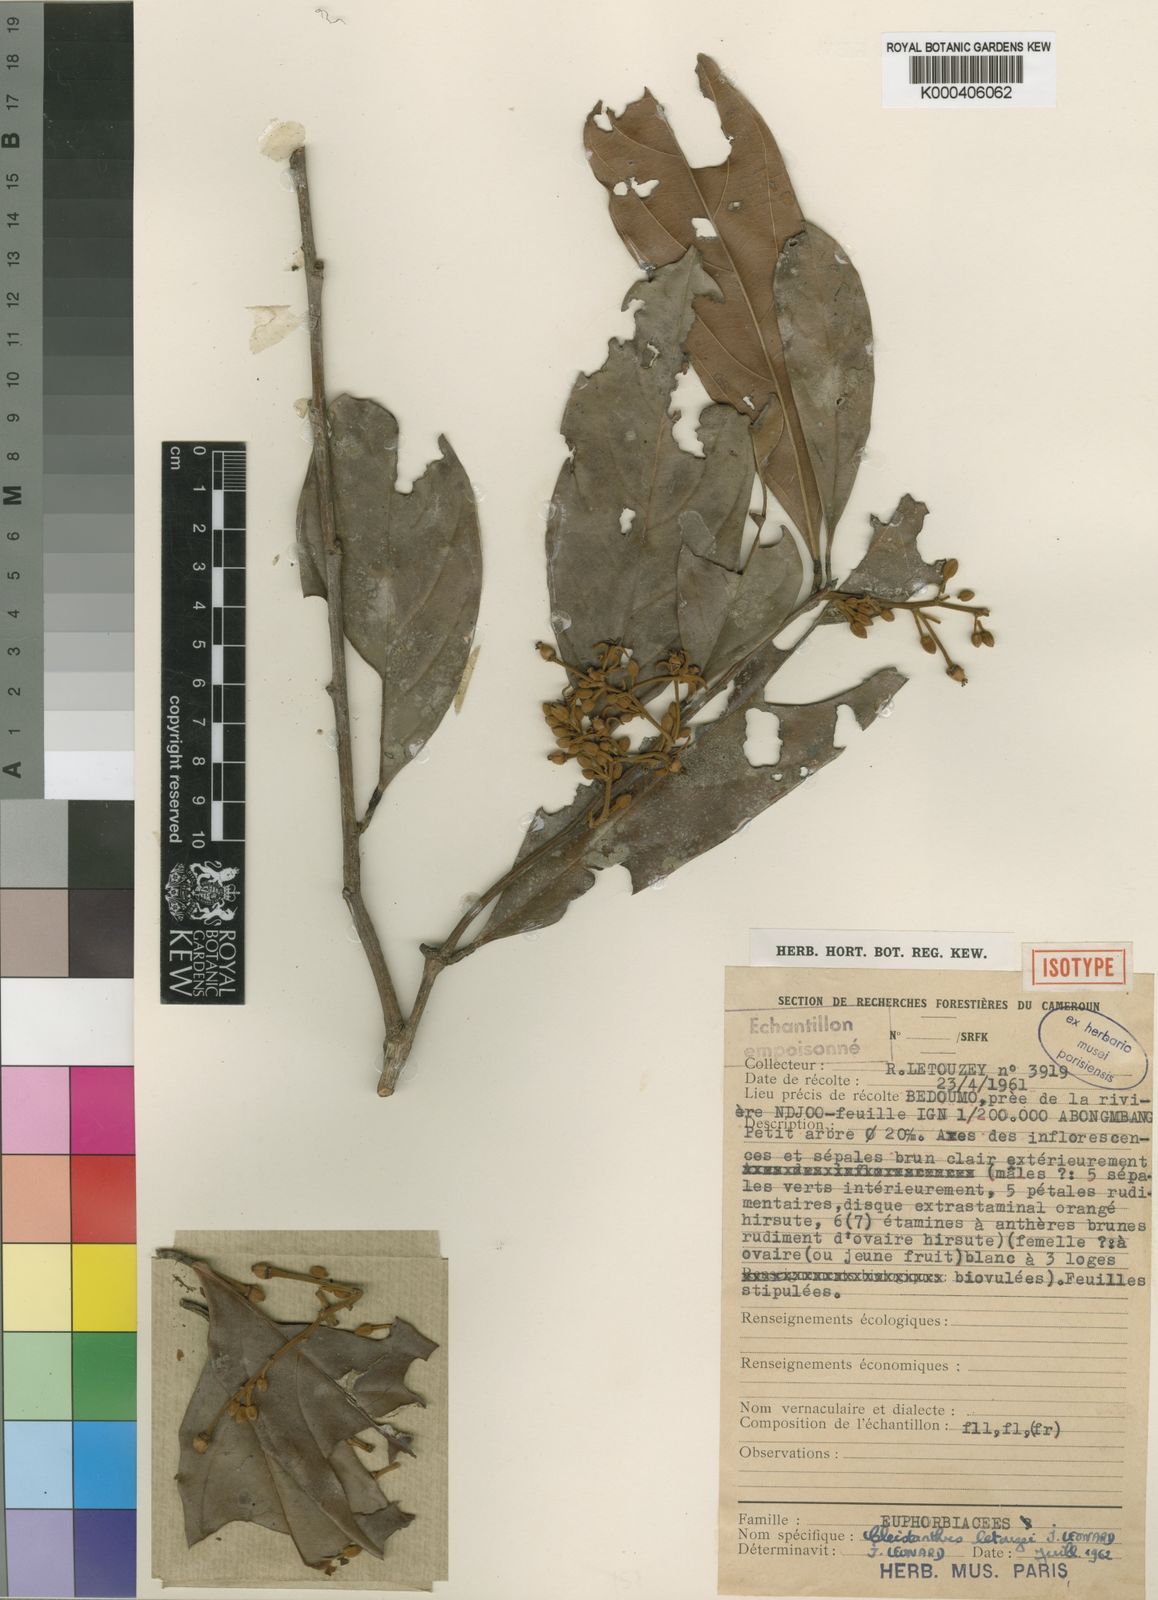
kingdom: Plantae
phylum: Tracheophyta
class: Magnoliopsida
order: Malpighiales
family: Phyllanthaceae
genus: Cleistanthus
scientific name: Cleistanthus
